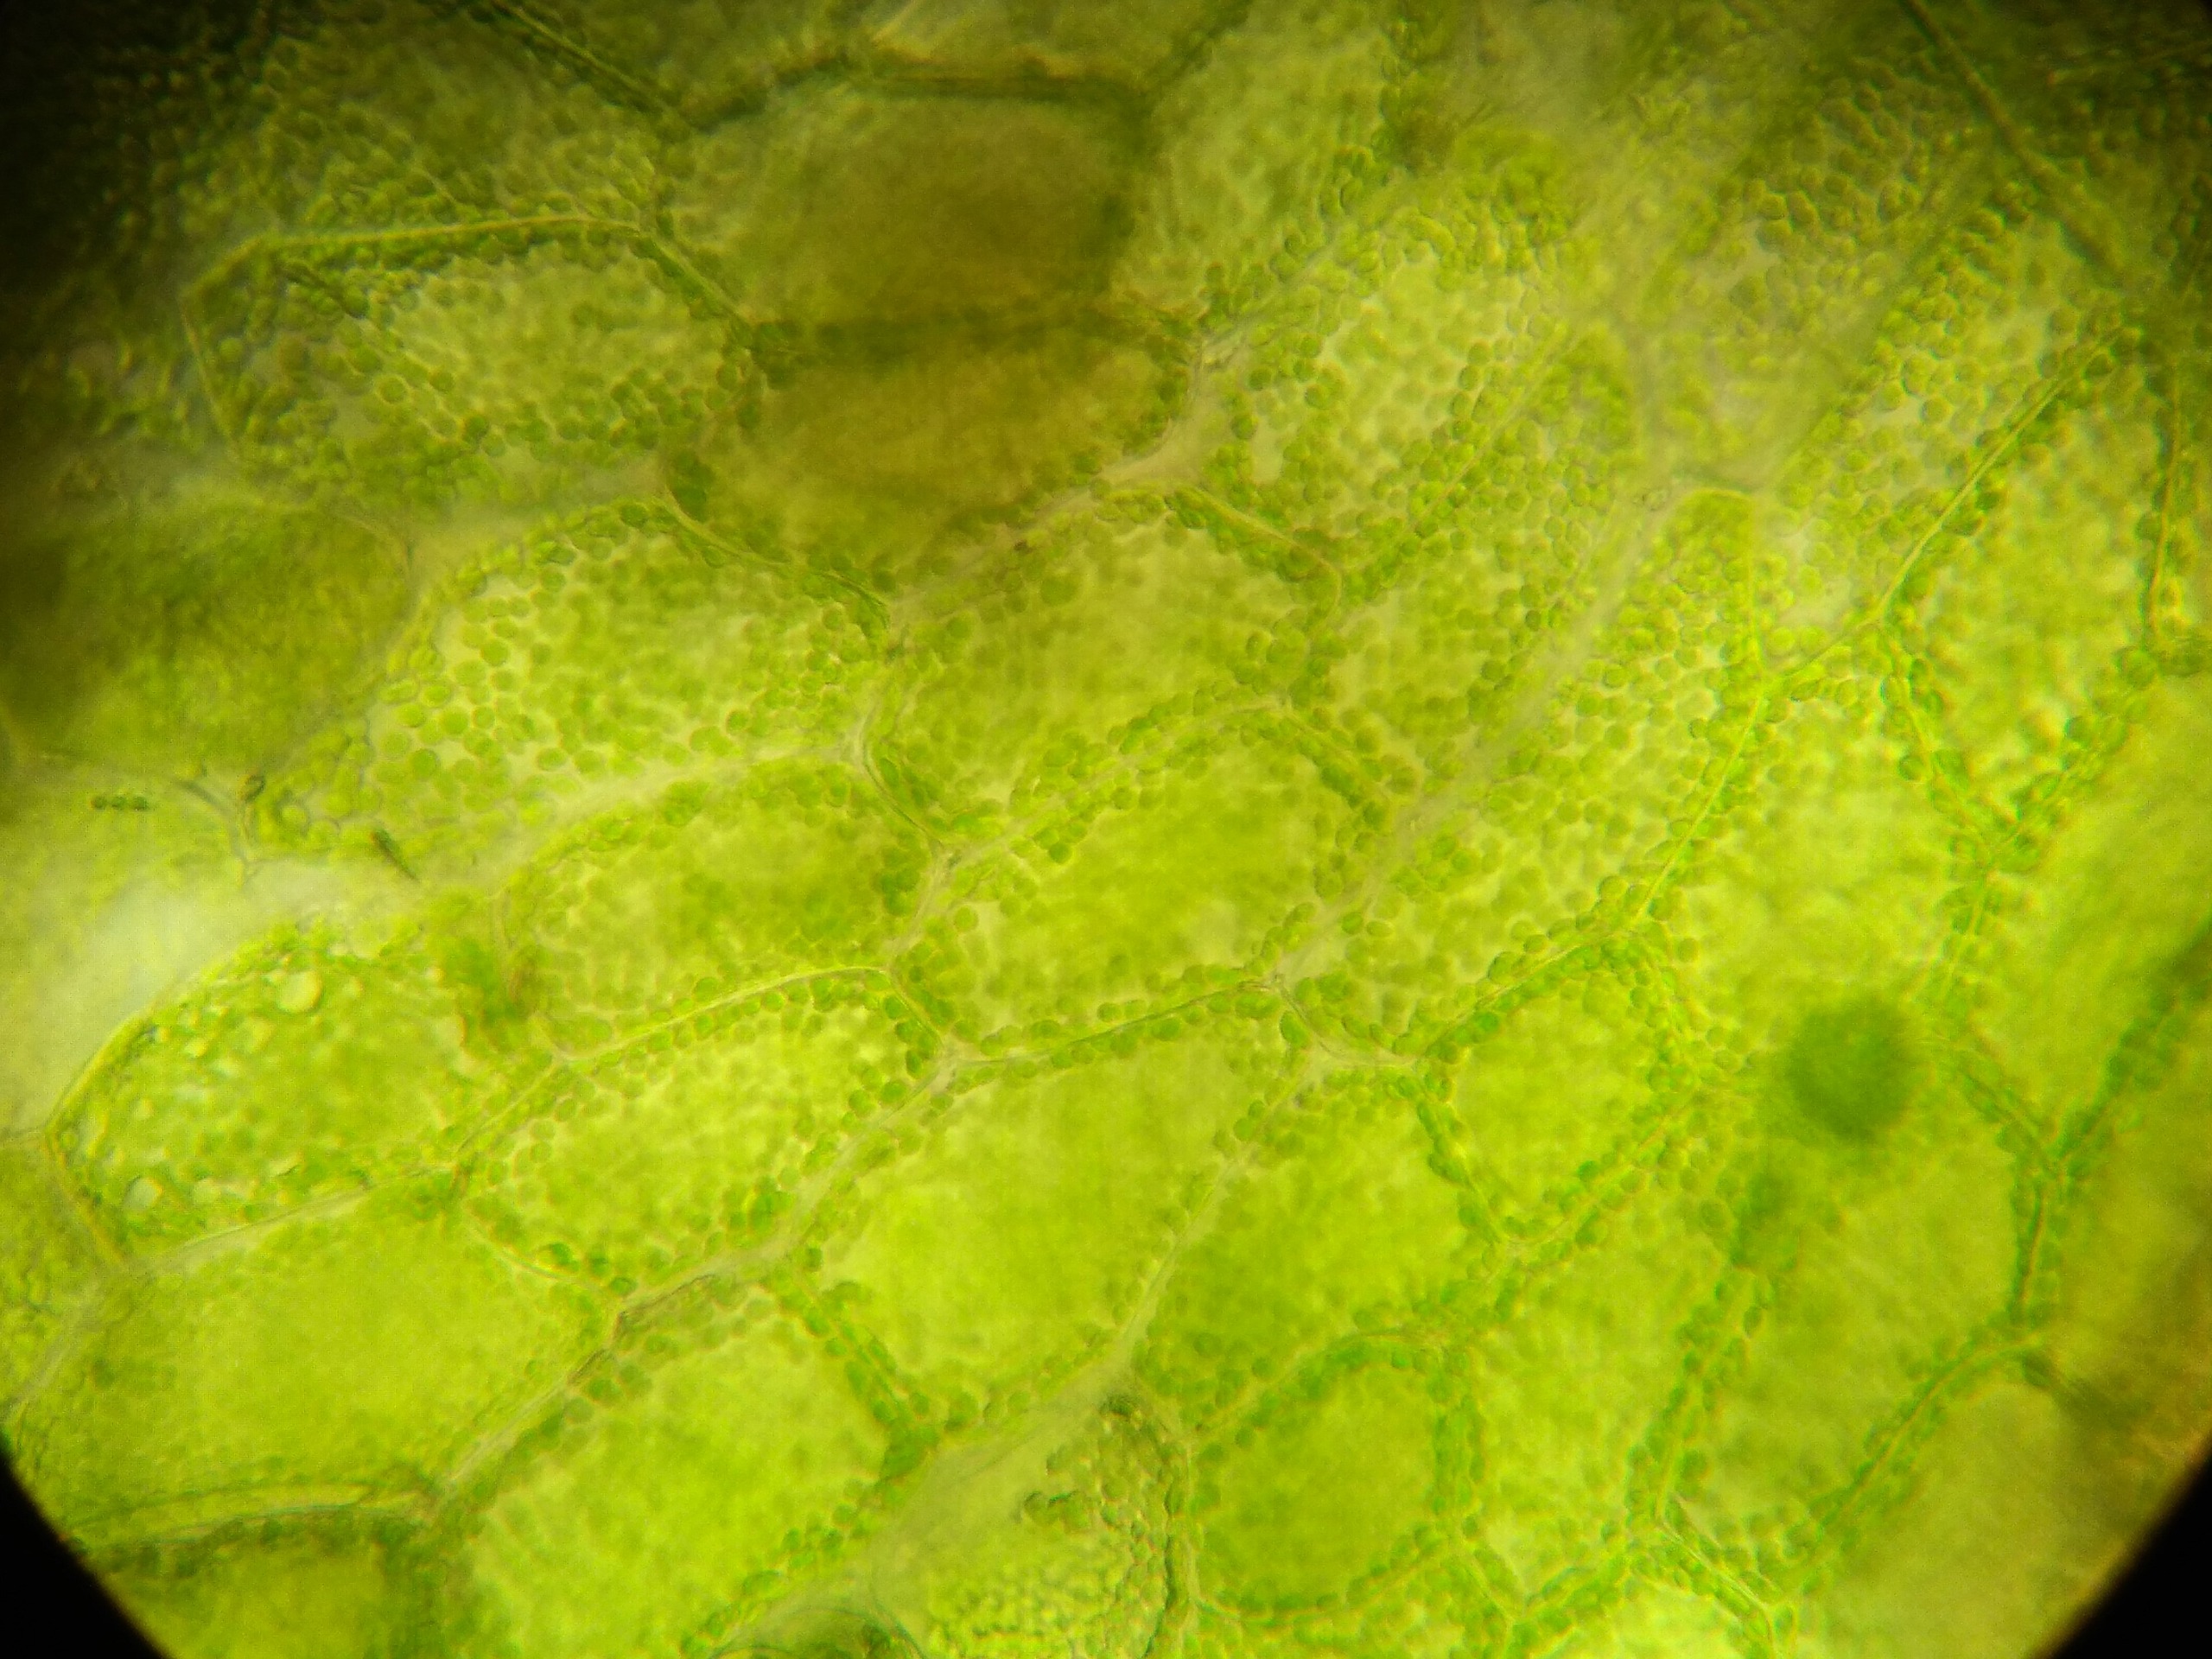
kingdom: Plantae
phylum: Marchantiophyta
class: Jungermanniopsida
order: Metzgeriales
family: Aneuraceae
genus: Riccardia
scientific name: Riccardia latifrons
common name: Bred ribbeløs
